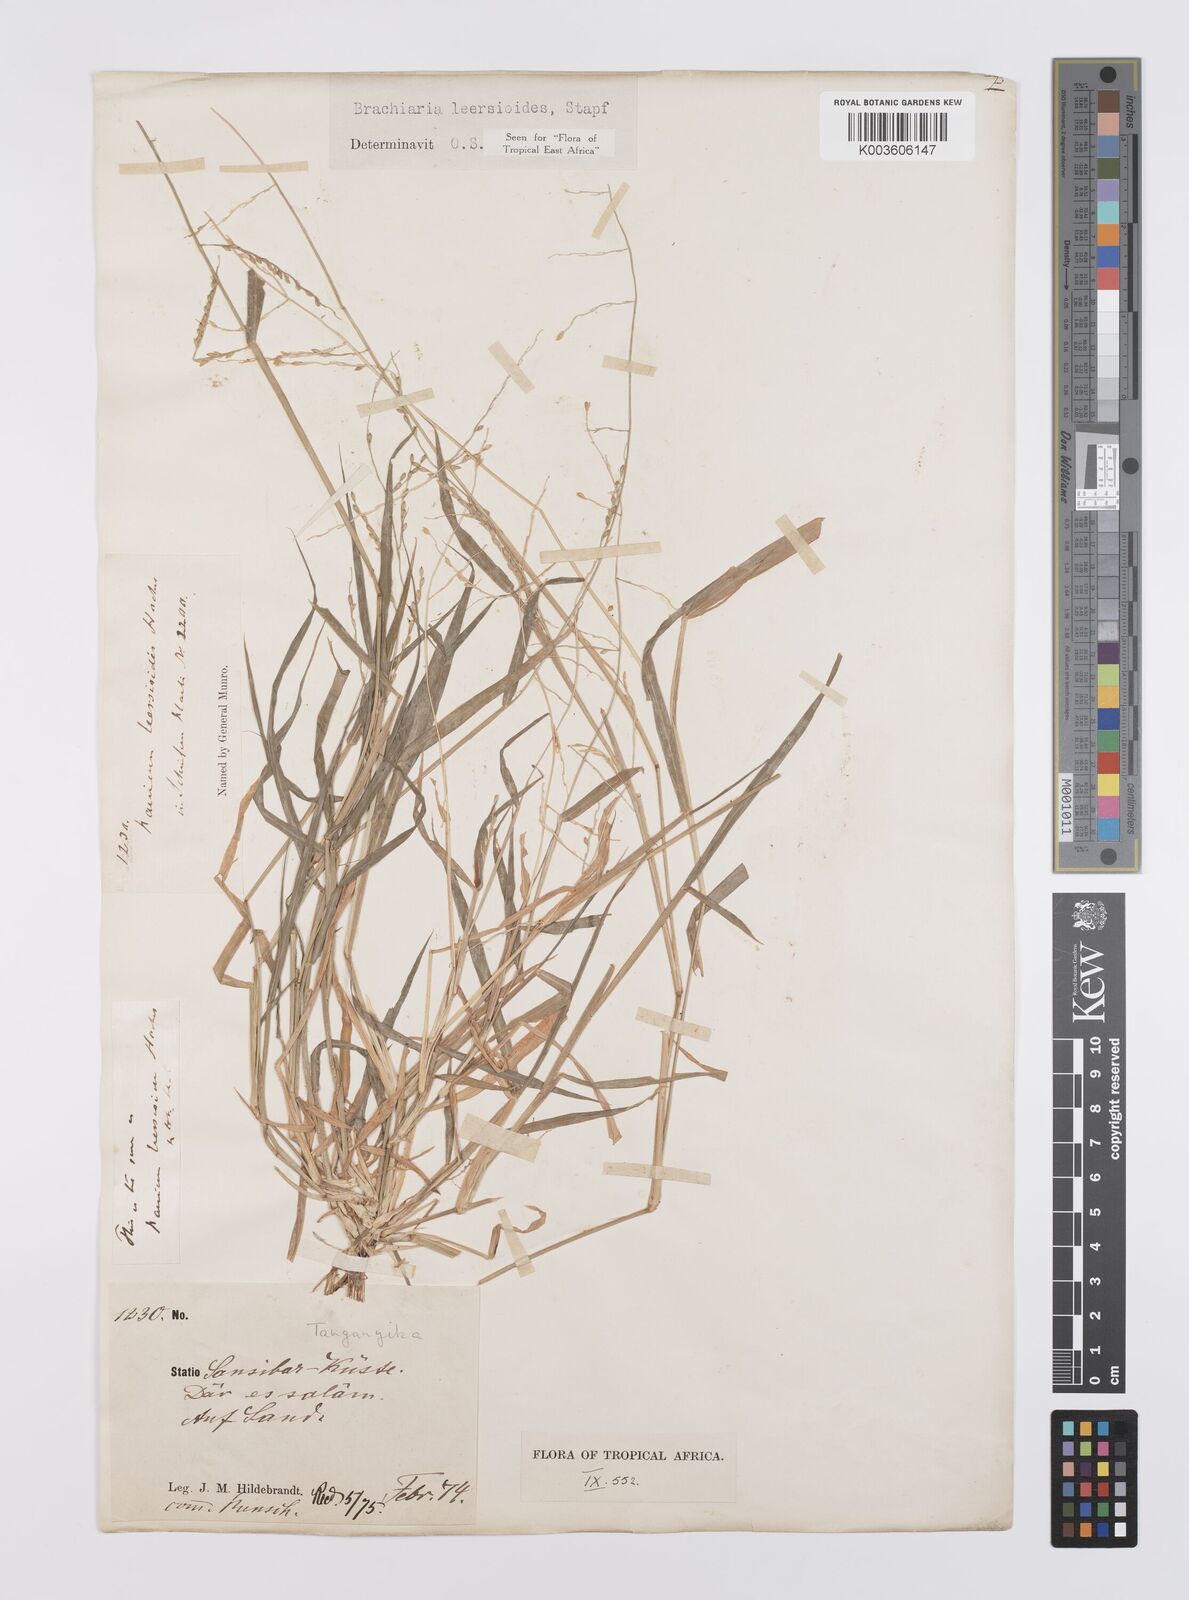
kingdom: Plantae
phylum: Tracheophyta
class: Liliopsida
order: Poales
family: Poaceae
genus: Urochloa
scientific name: Urochloa leersioides
